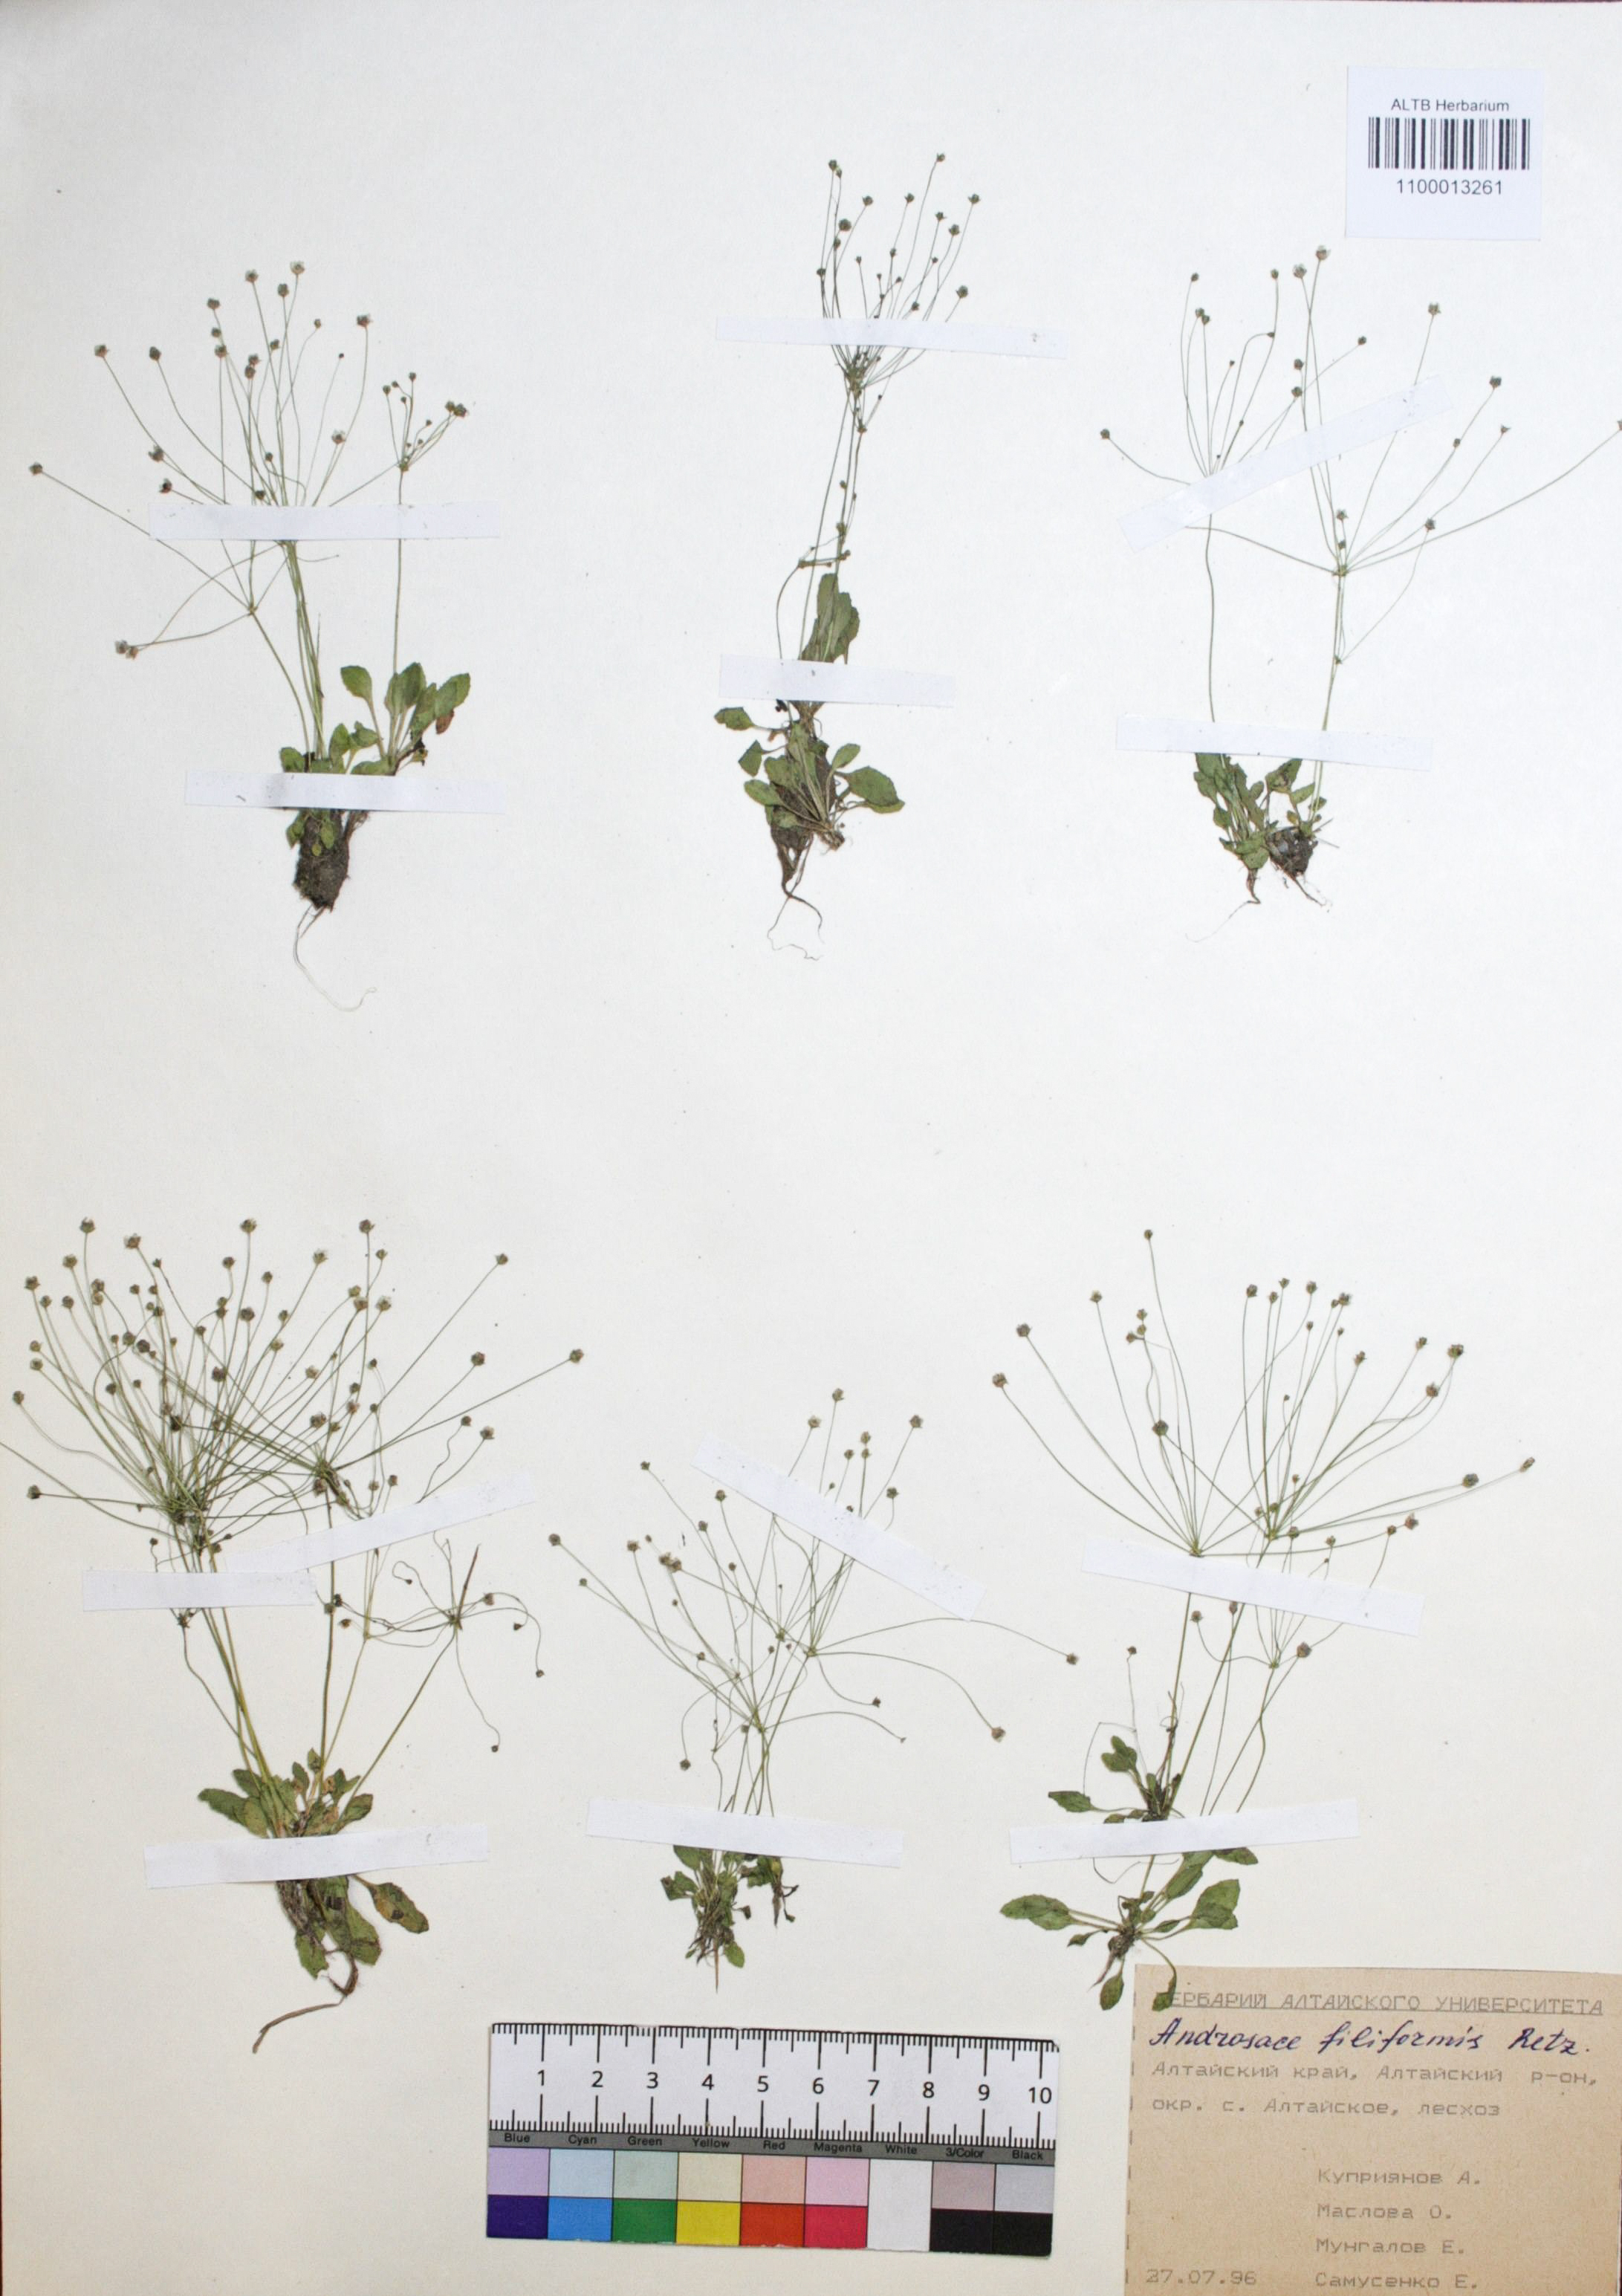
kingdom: Plantae
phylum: Tracheophyta
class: Magnoliopsida
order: Ericales
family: Primulaceae
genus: Androsace
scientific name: Androsace filiformis
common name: Filiform rock jasmine
